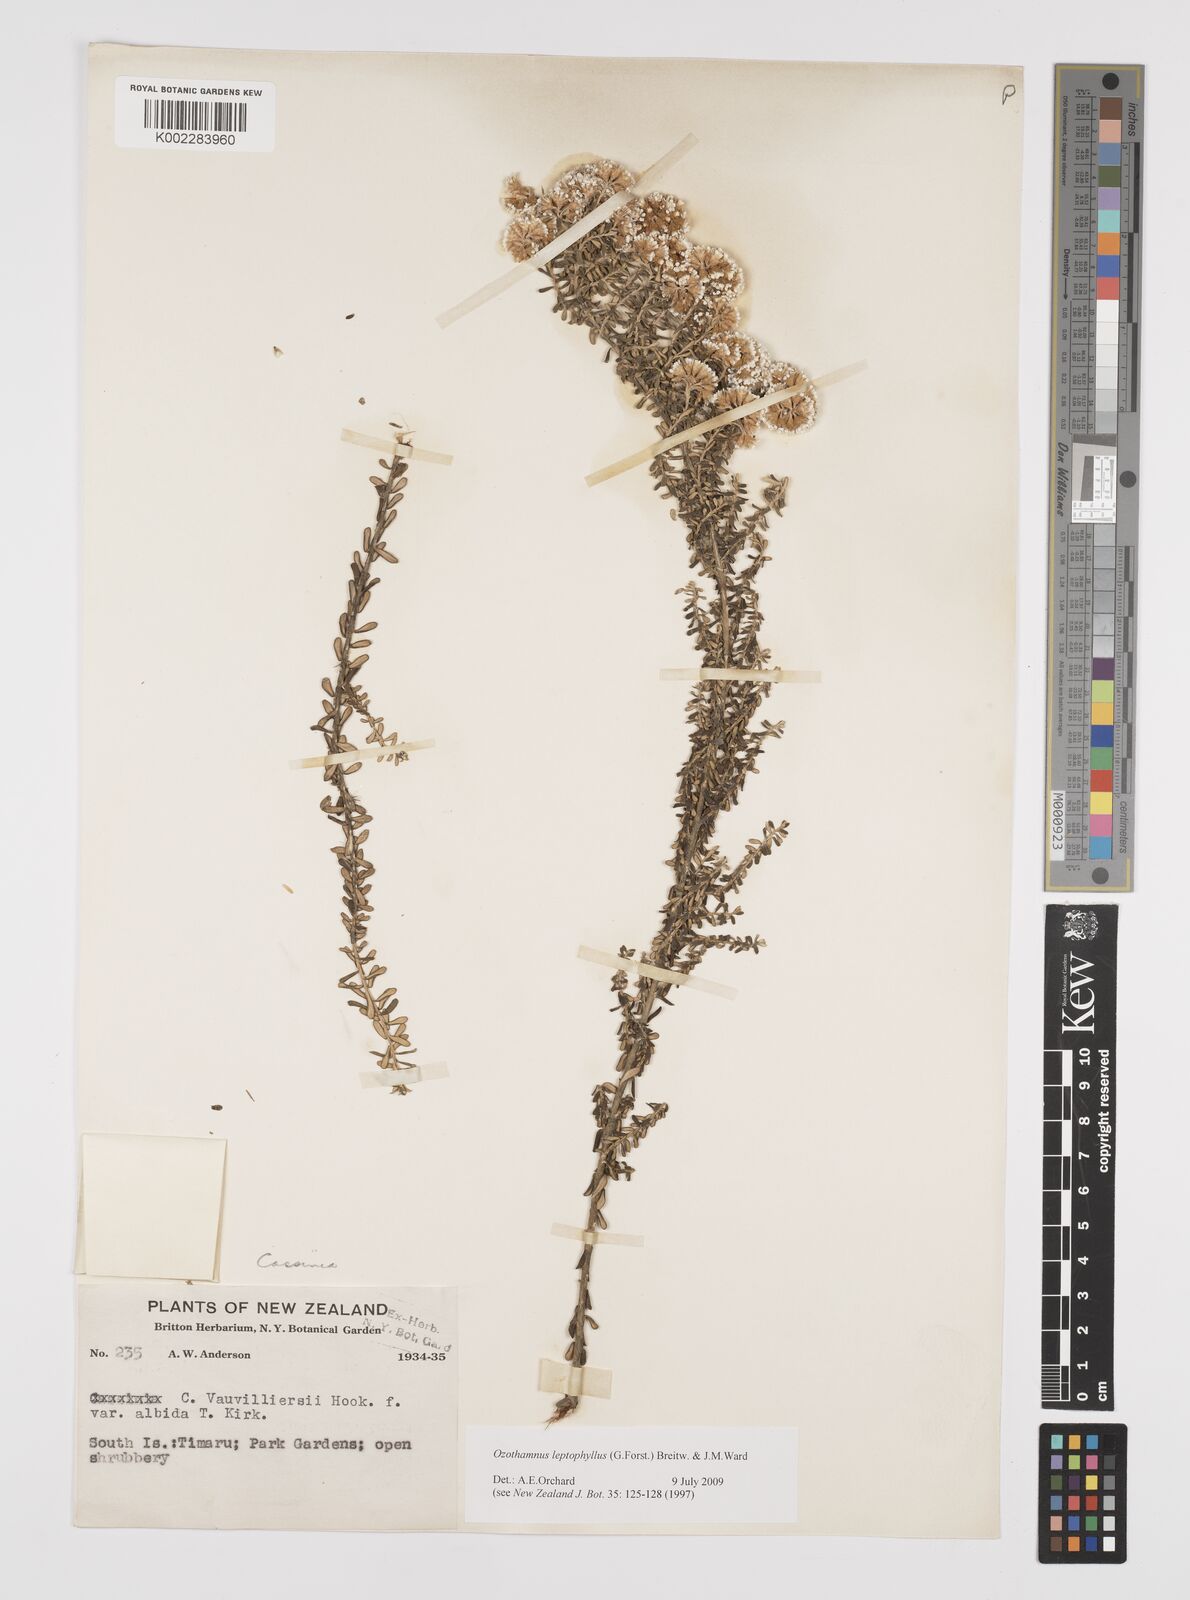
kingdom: Plantae
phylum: Tracheophyta
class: Magnoliopsida
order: Asterales
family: Asteraceae
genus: Ozothamnus
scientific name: Ozothamnus leptophyllus
